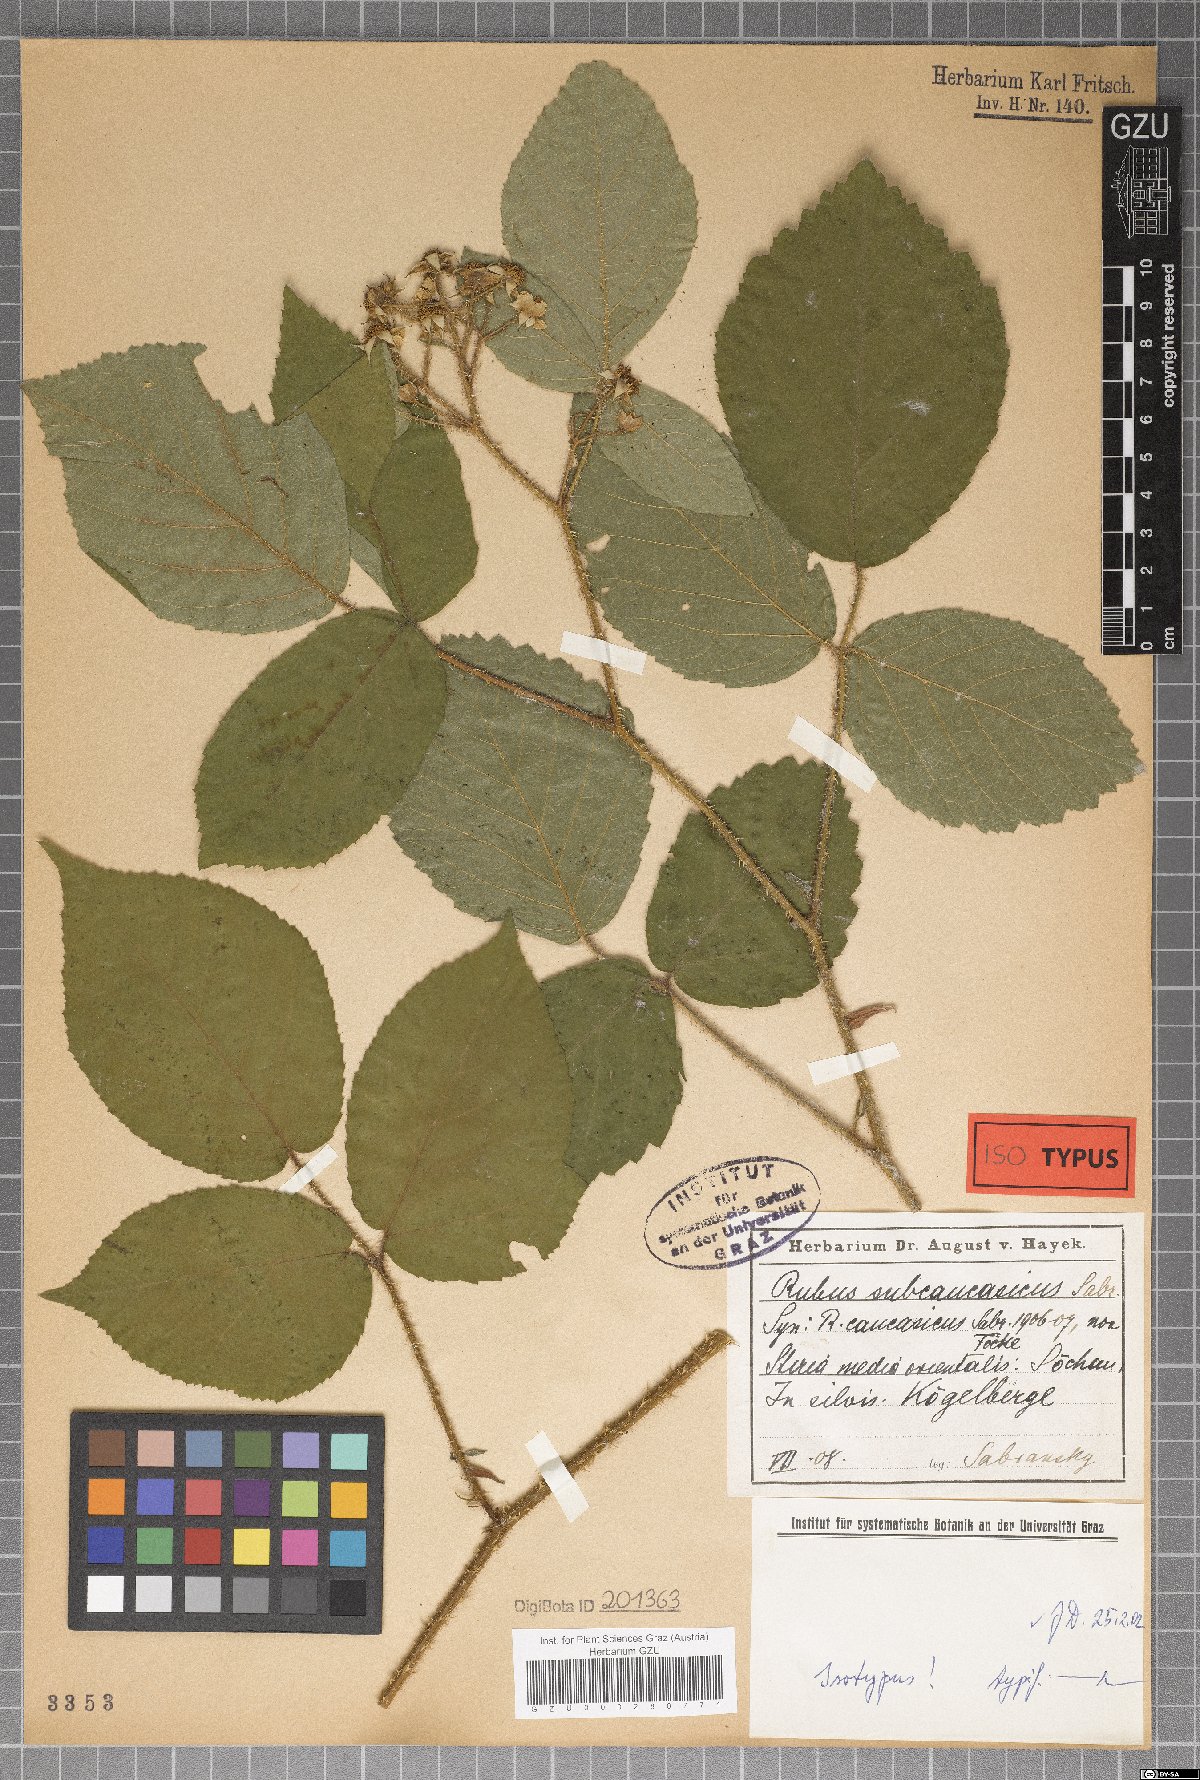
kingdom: Plantae
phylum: Tracheophyta
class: Magnoliopsida
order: Rosales
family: Rosaceae
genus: Rubus
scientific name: Rubus subcaucasicus
